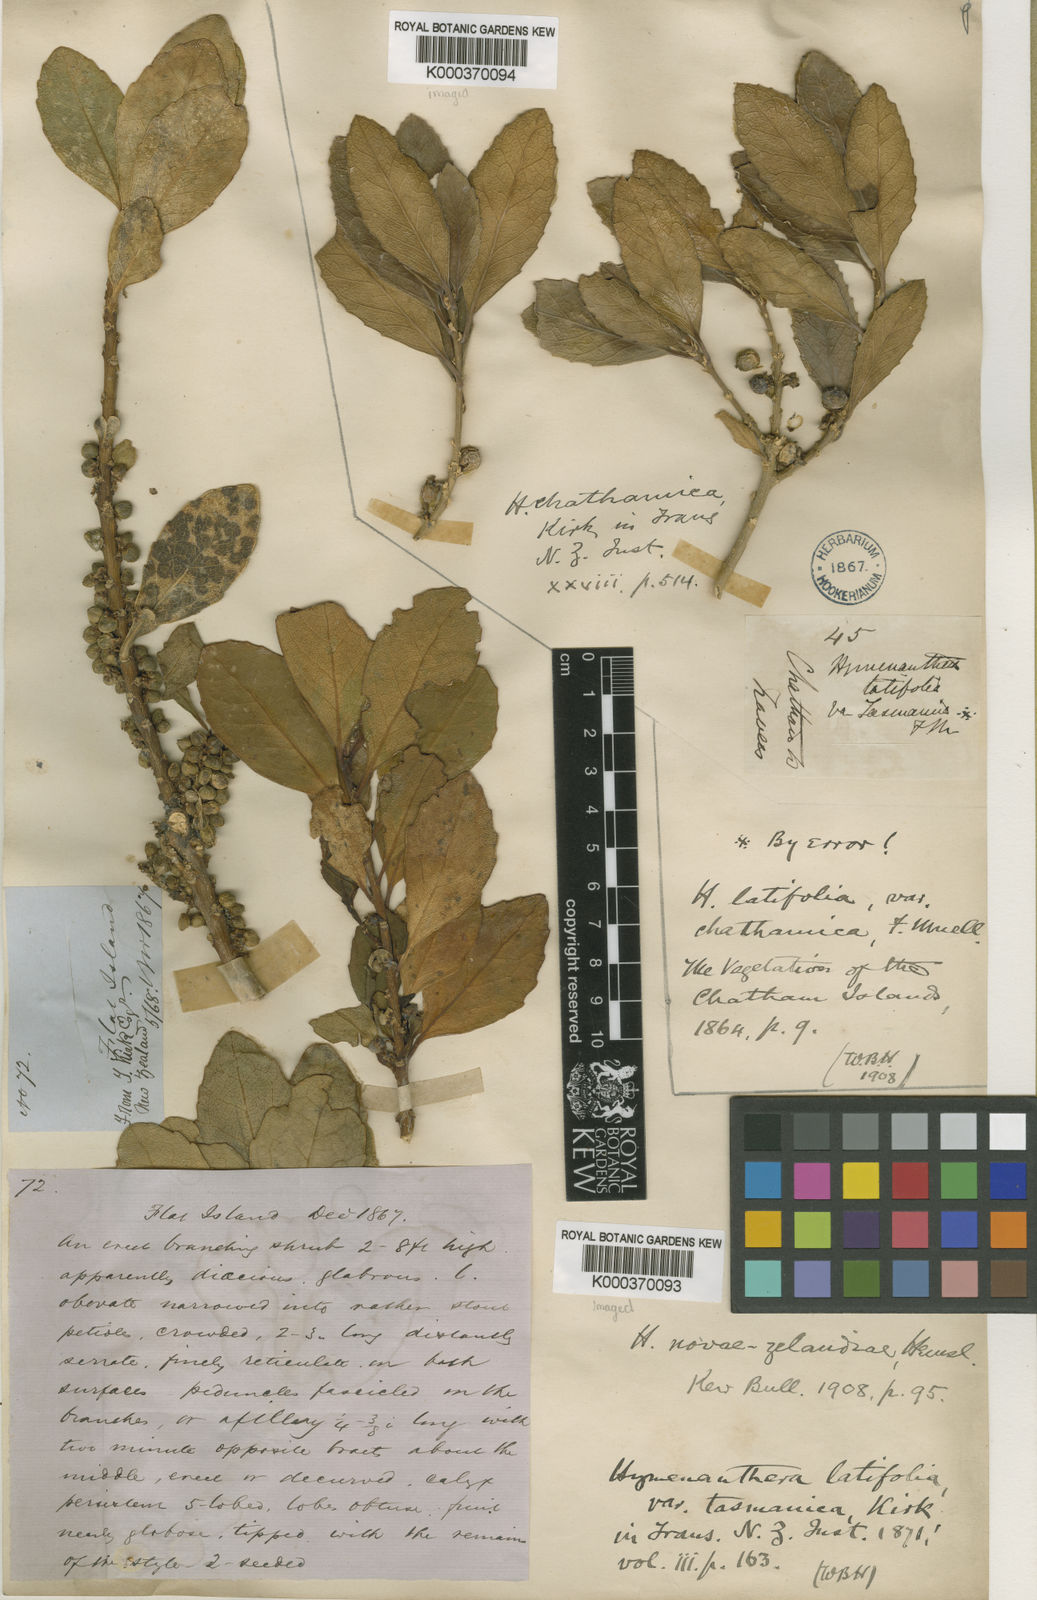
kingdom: Plantae
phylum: Tracheophyta
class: Magnoliopsida
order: Malpighiales
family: Violaceae
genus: Melicytus
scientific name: Melicytus novae-zelandiae
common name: Coastal mahoe
